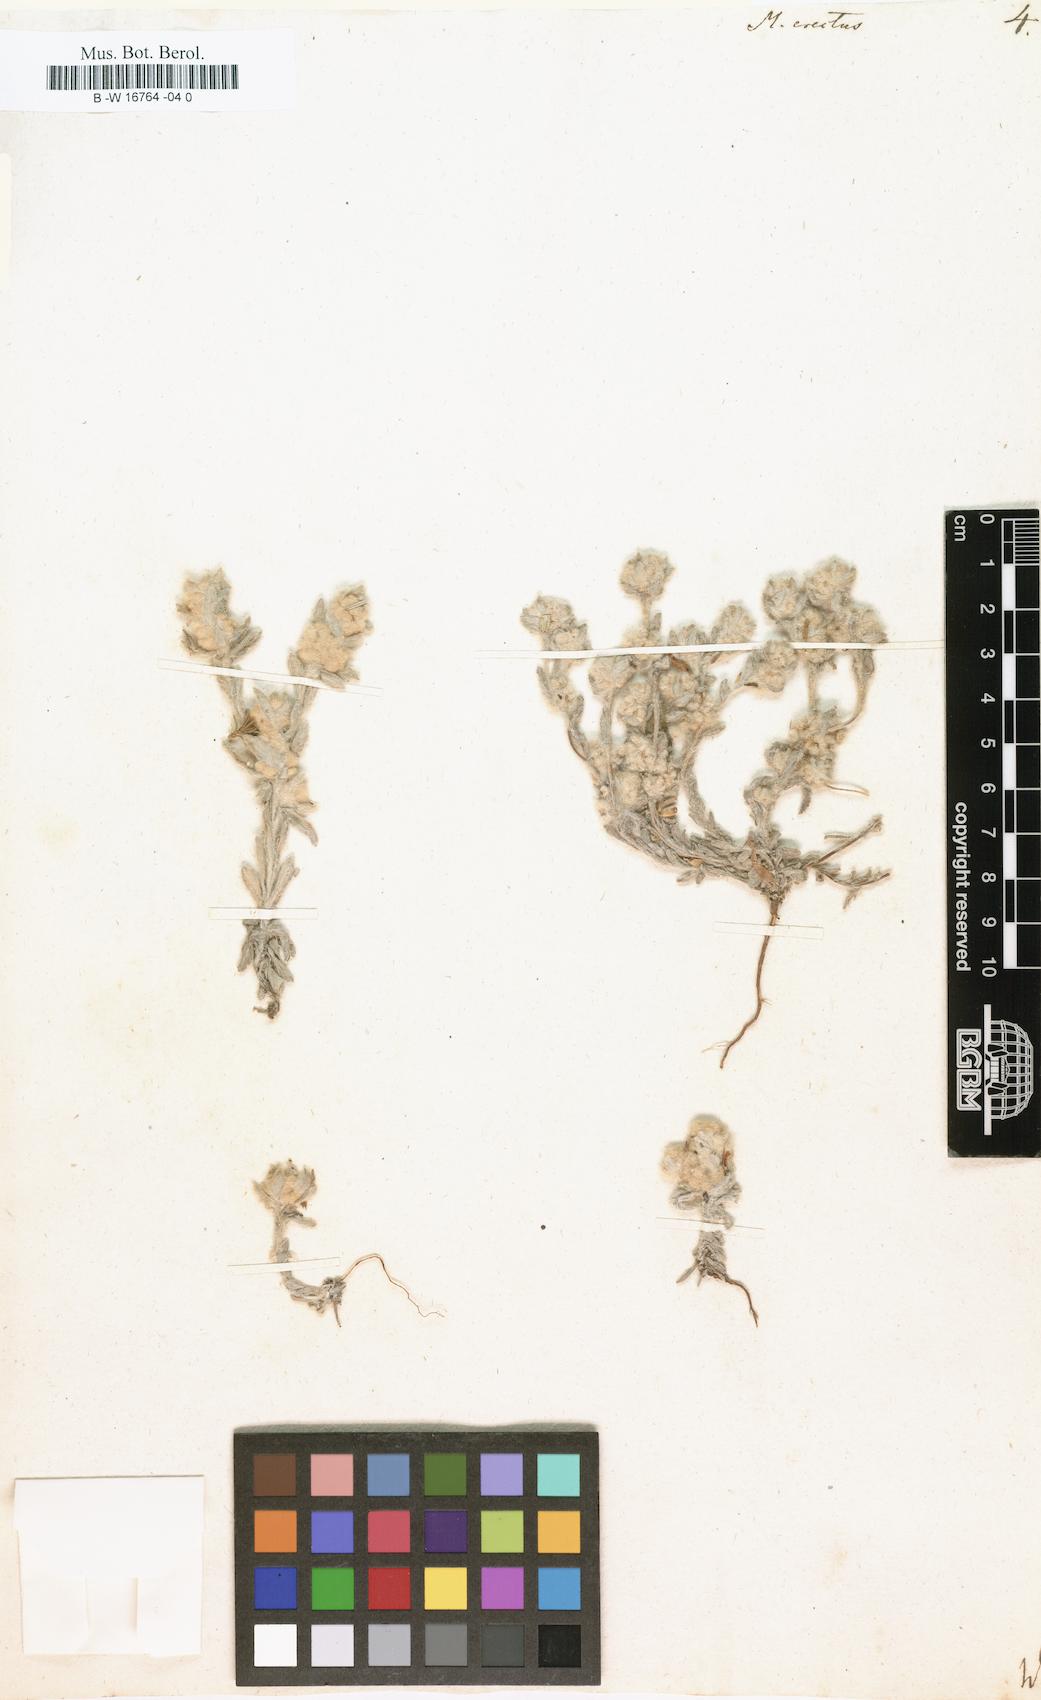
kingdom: Plantae
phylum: Tracheophyta
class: Magnoliopsida
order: Asterales
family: Asteraceae
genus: Bombycilaena
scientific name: Bombycilaena
